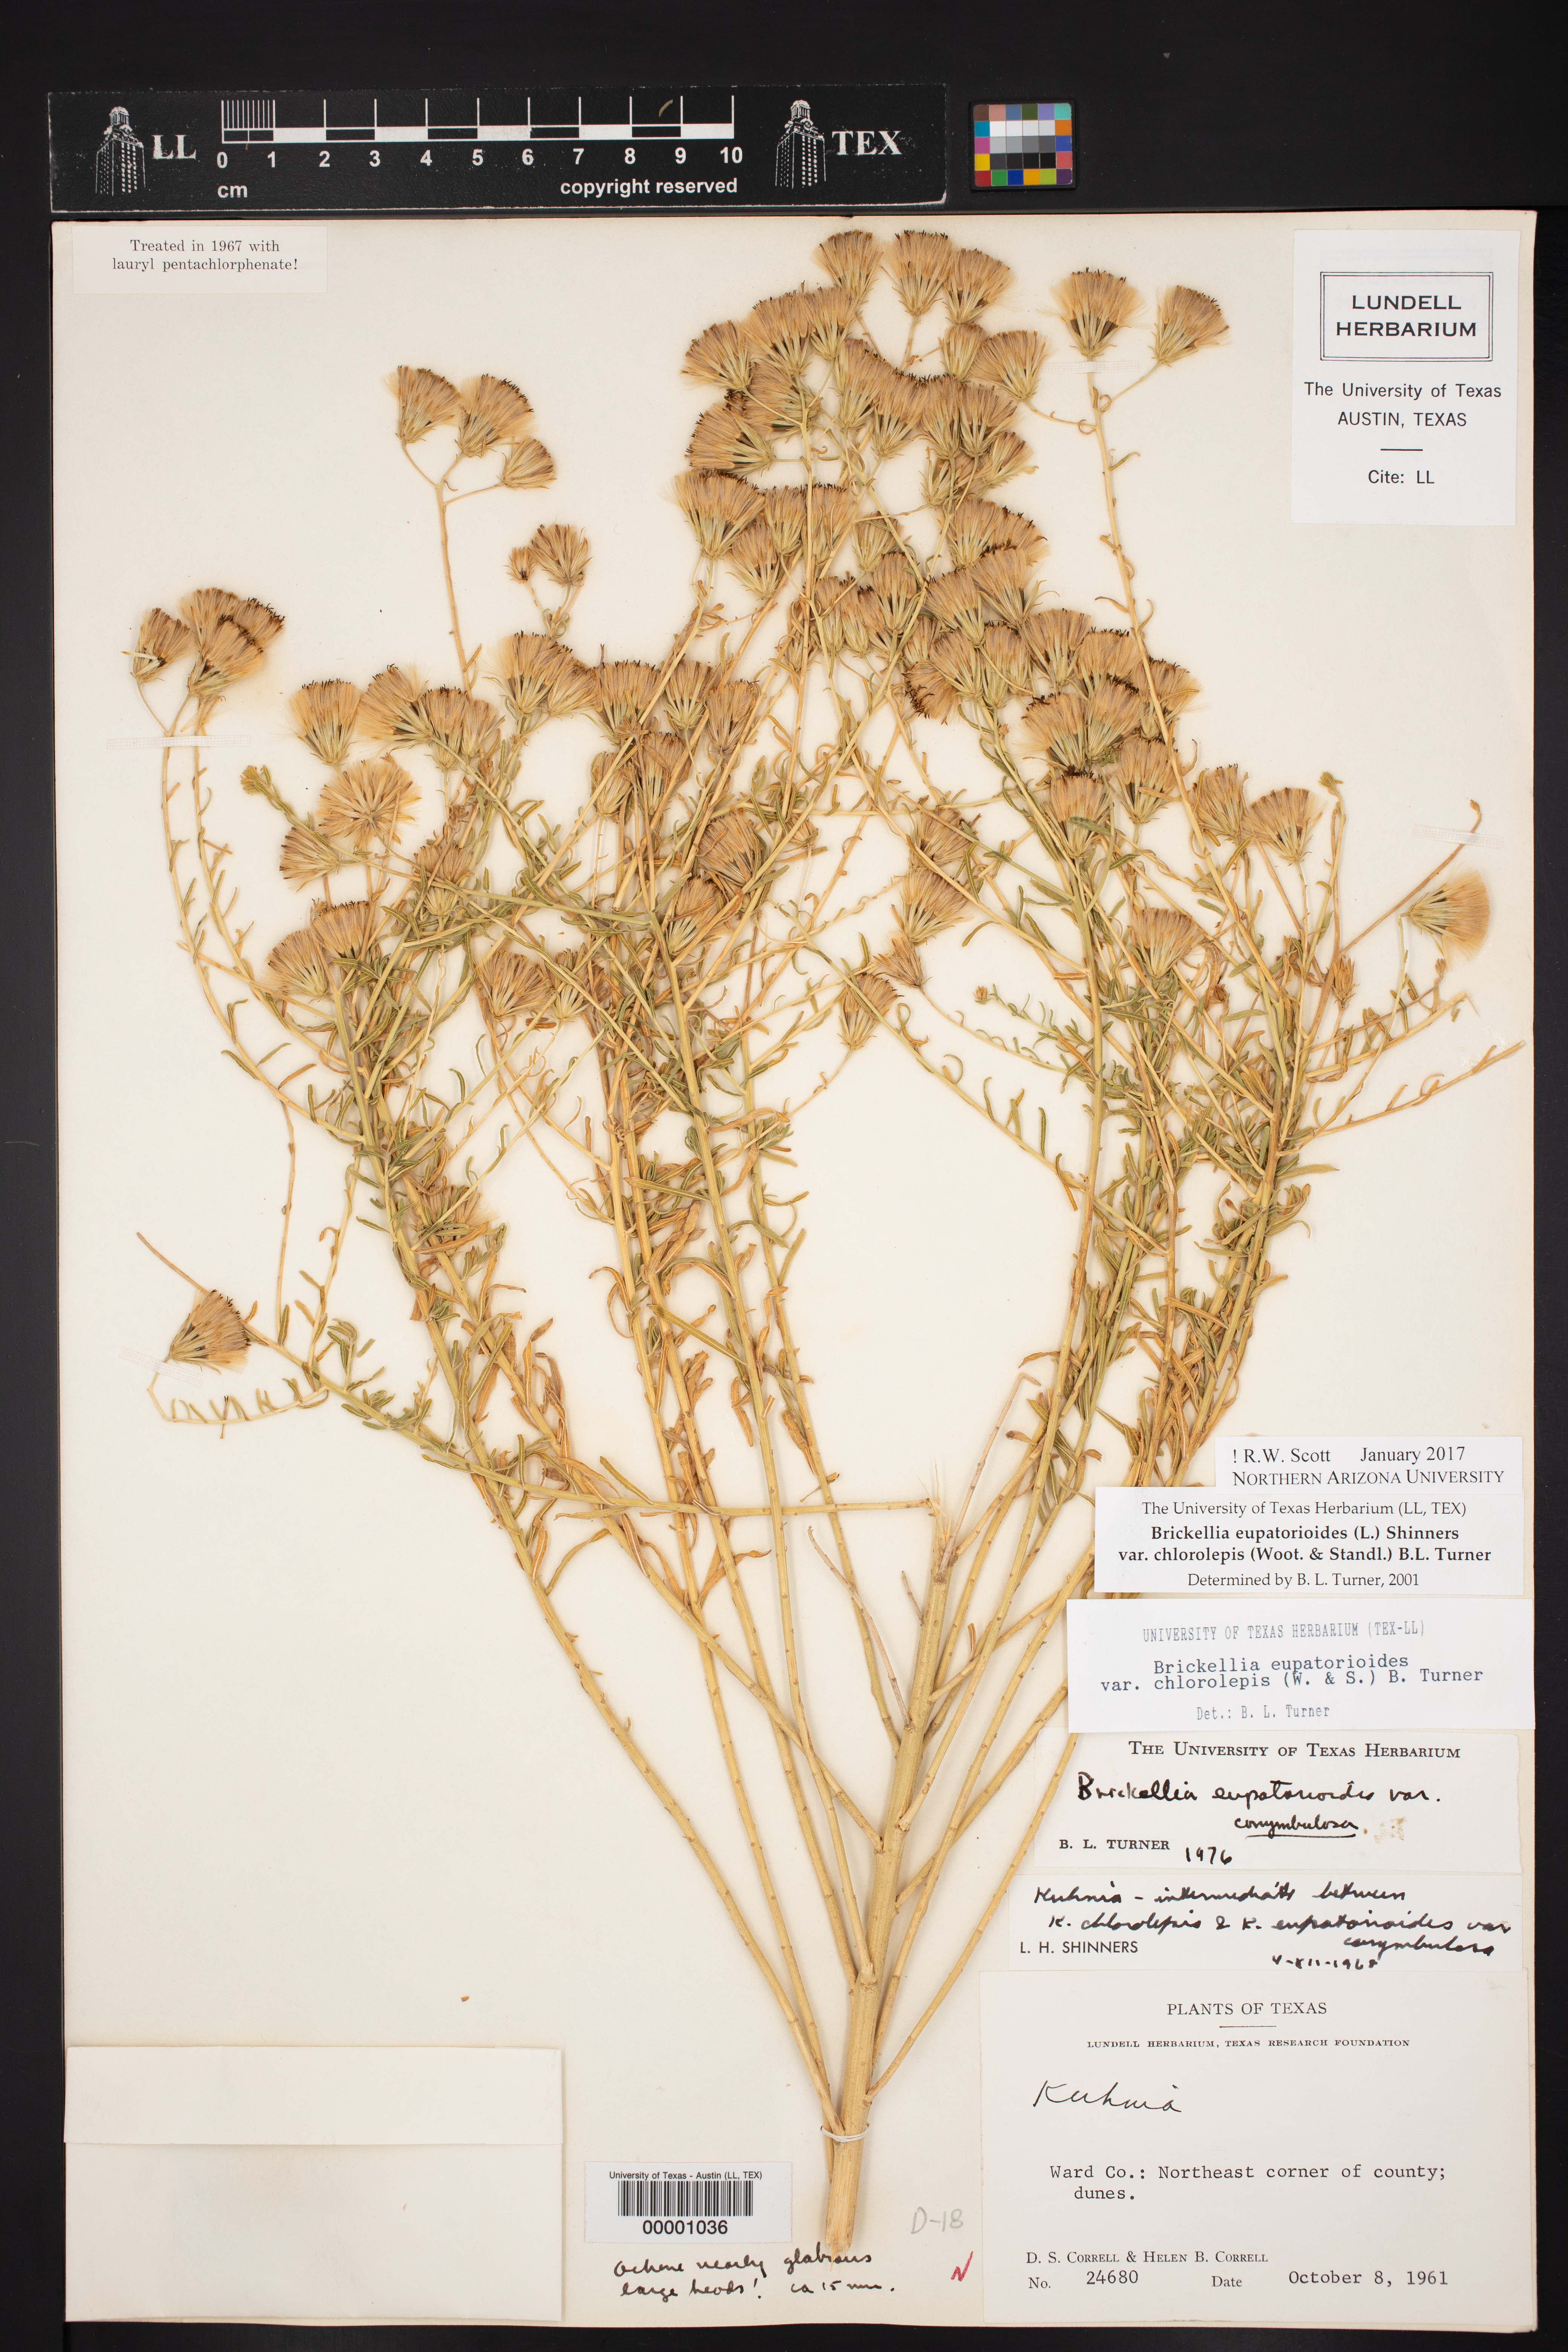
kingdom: Plantae
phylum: Tracheophyta
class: Magnoliopsida
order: Asterales
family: Asteraceae
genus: Brickellia
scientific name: Brickellia leptophylla
